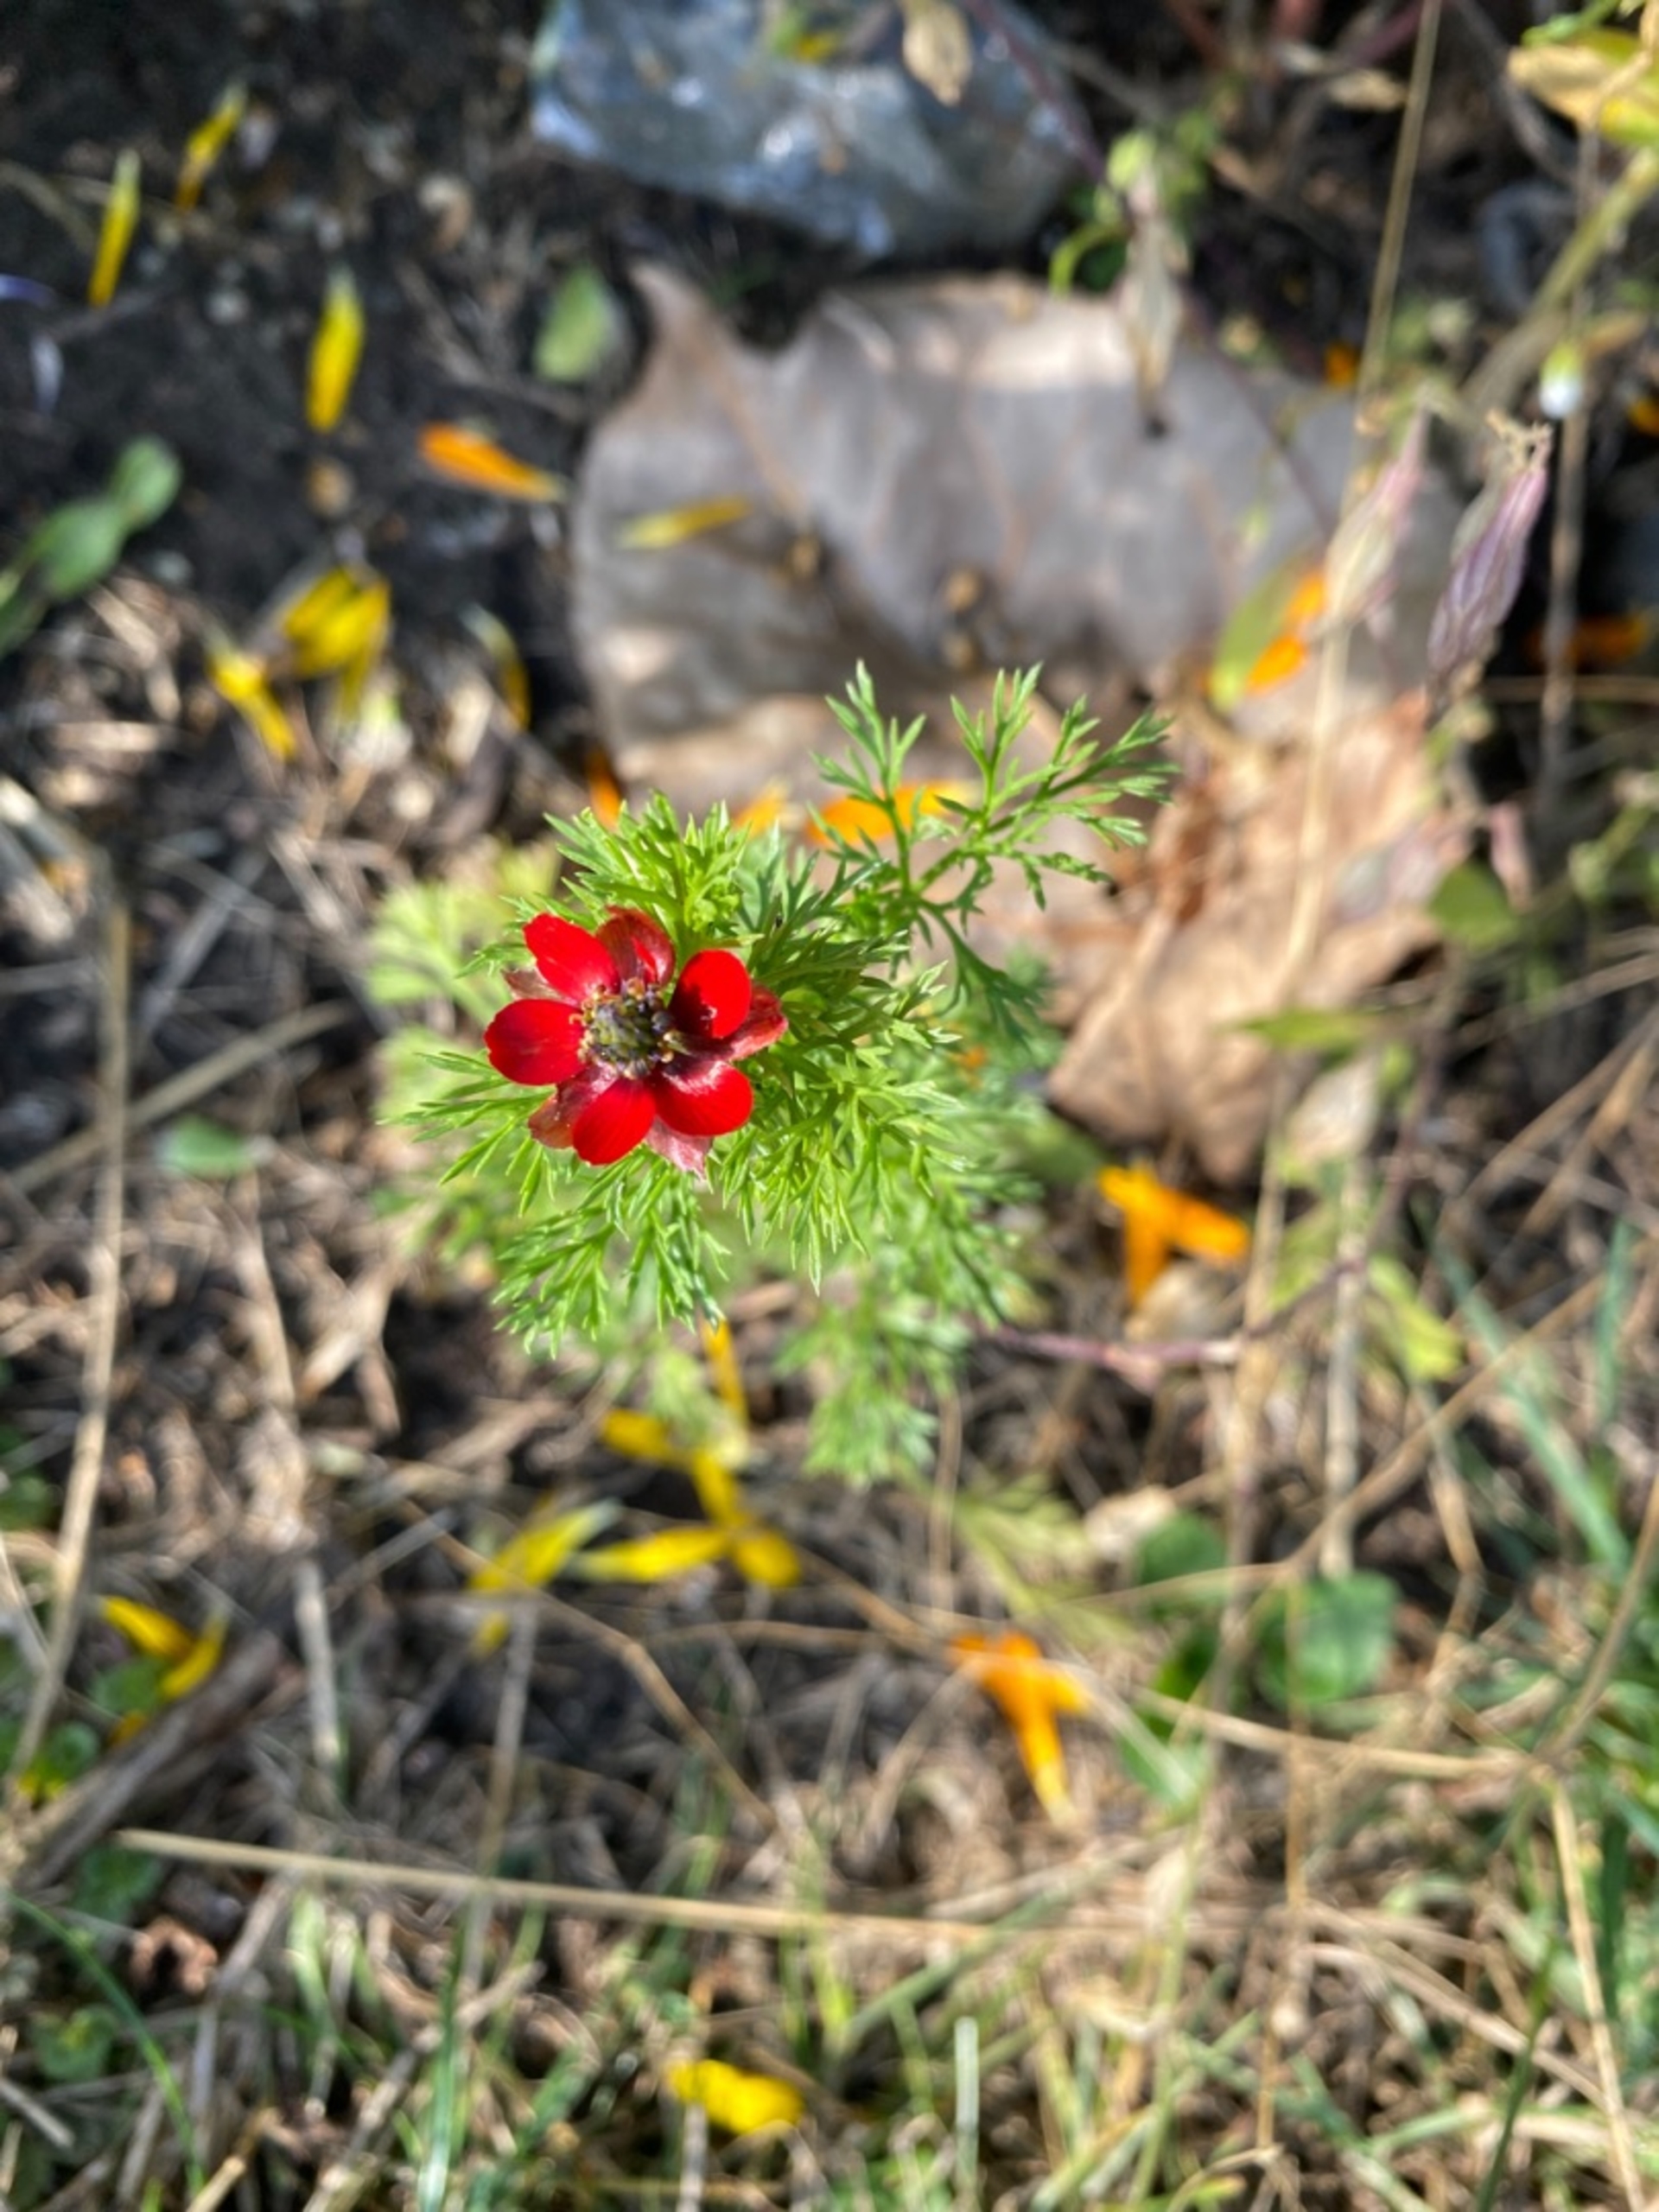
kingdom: Plantae
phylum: Tracheophyta
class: Magnoliopsida
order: Ranunculales
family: Ranunculaceae
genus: Adonis
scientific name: Adonis annua
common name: Høst-adonis
